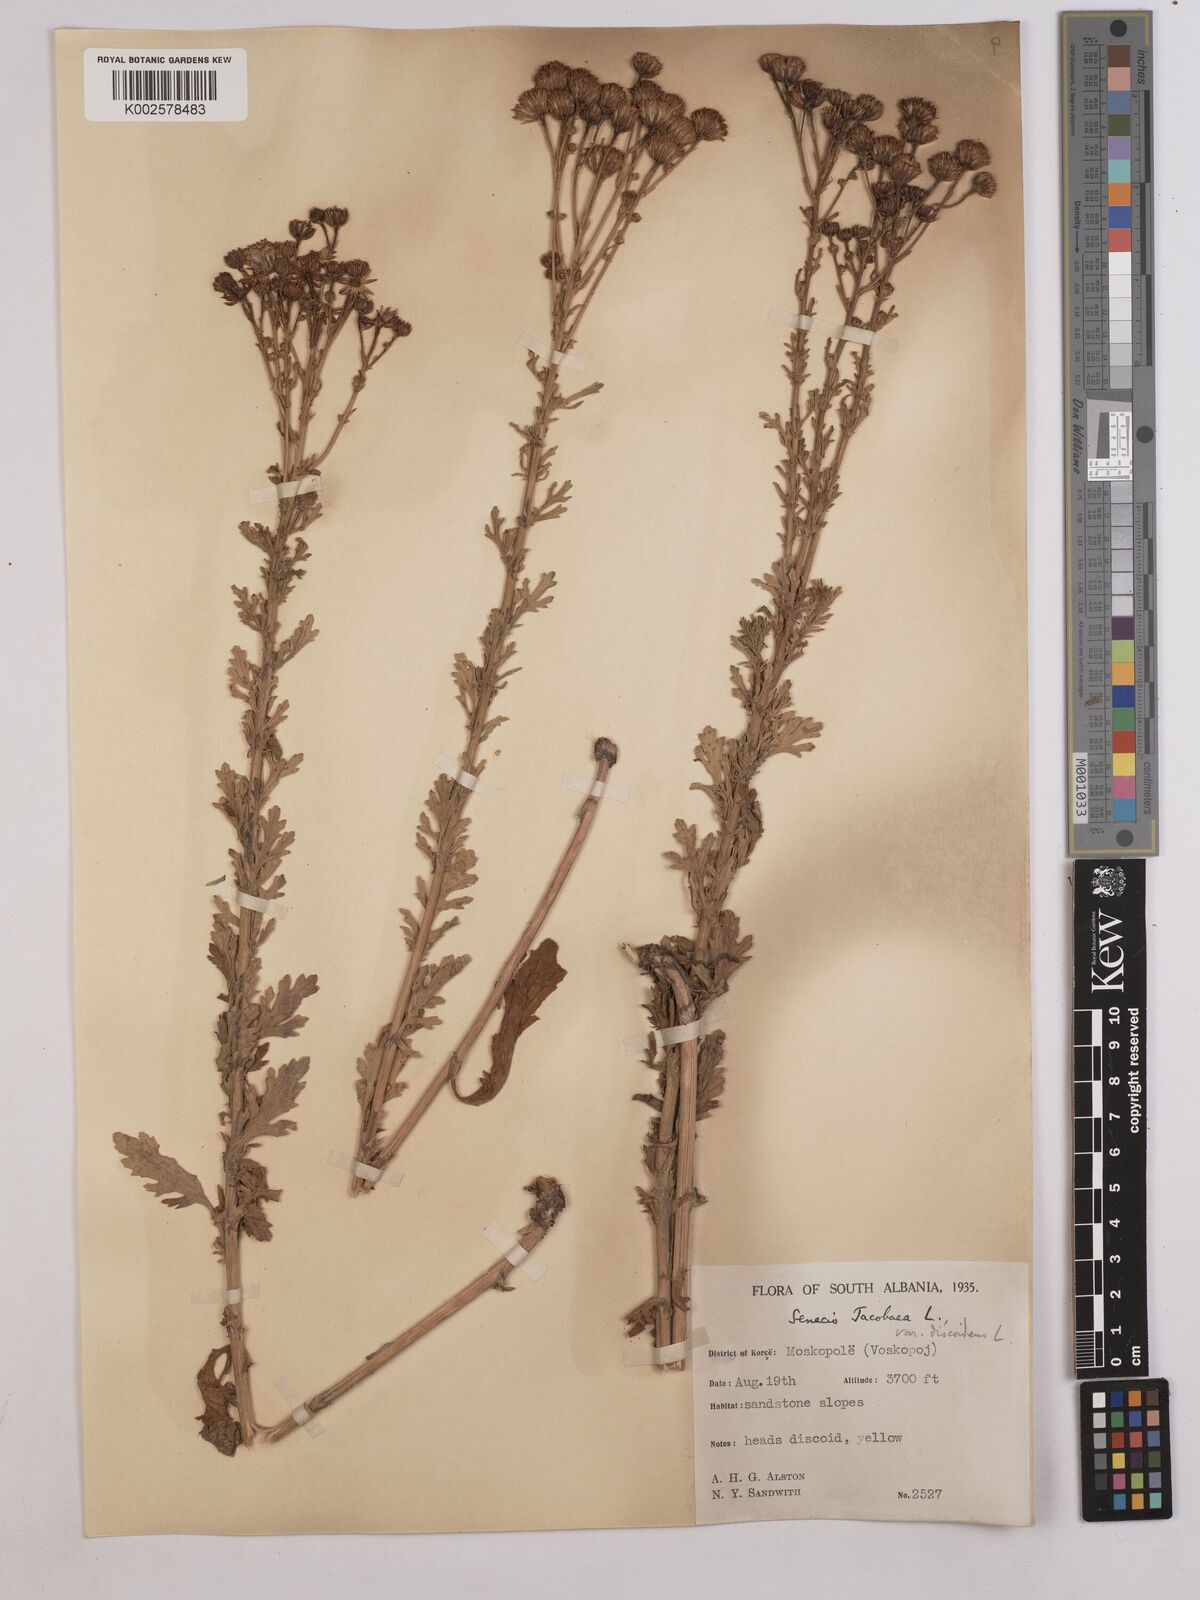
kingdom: Plantae
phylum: Tracheophyta
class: Magnoliopsida
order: Asterales
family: Asteraceae
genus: Jacobaea
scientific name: Jacobaea vulgaris
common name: Stinking willie
